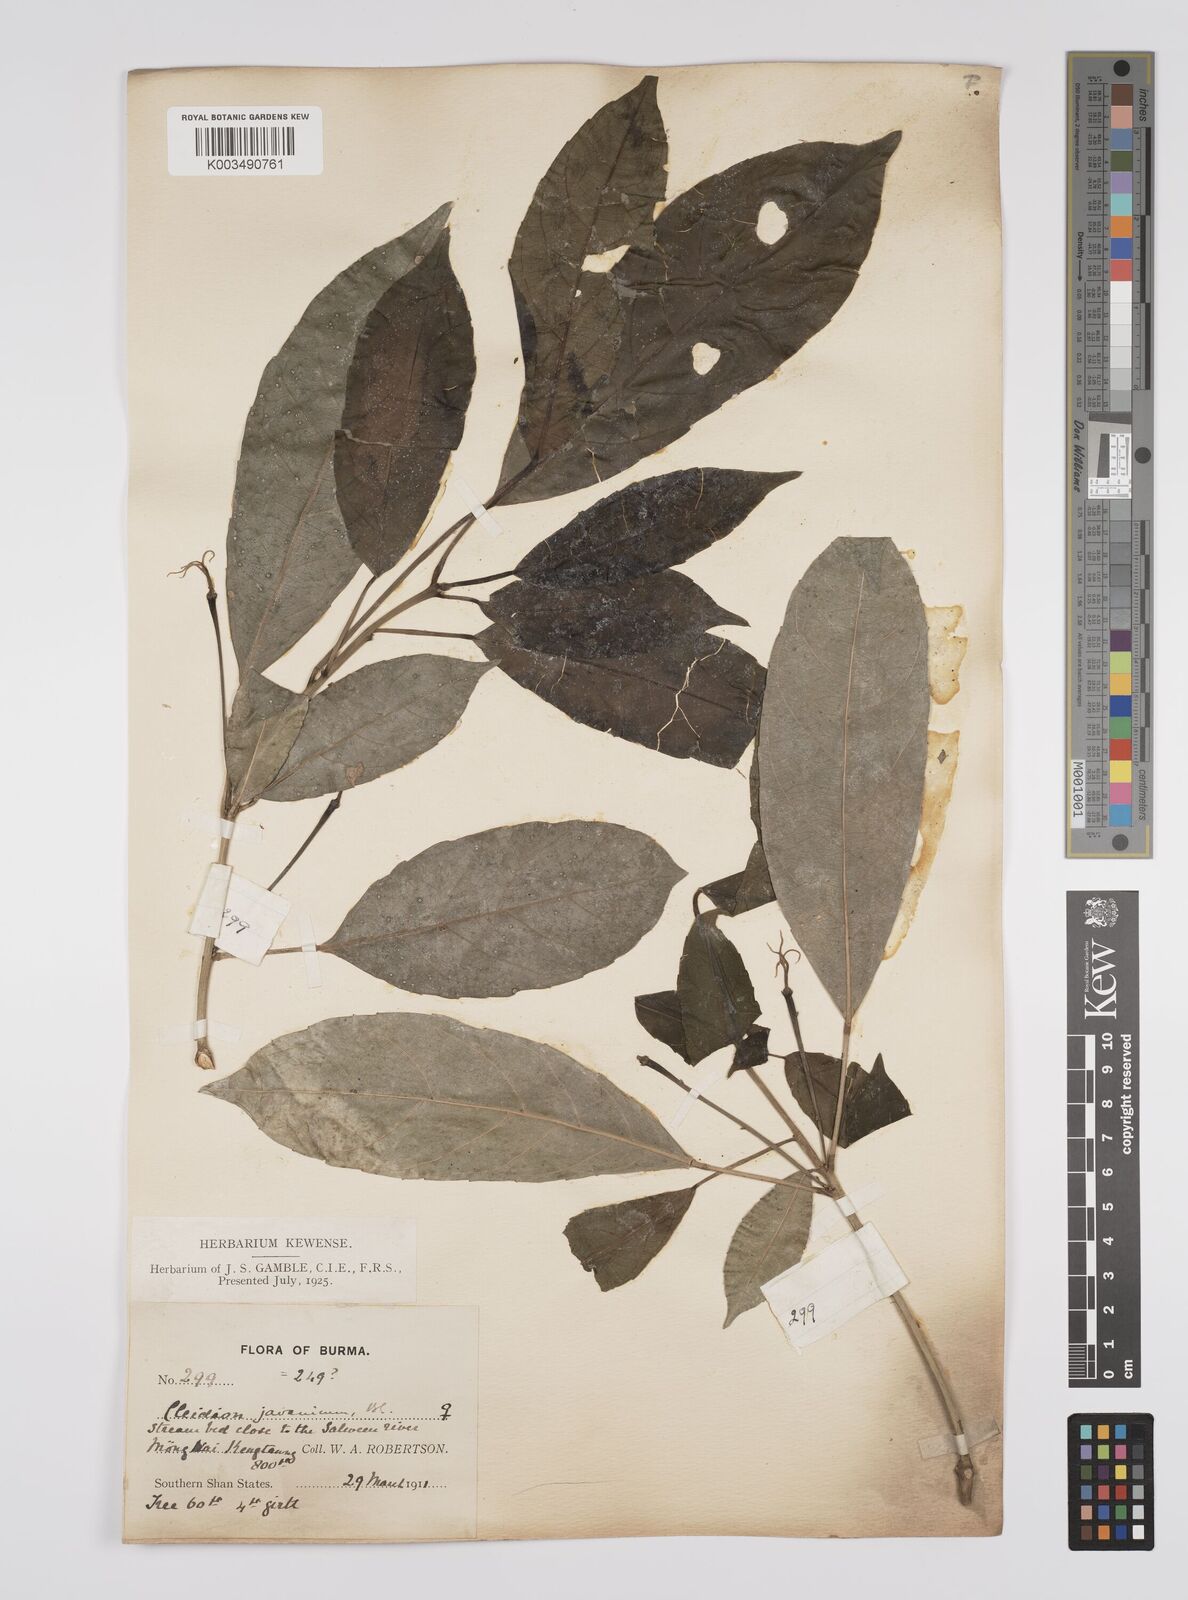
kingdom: Plantae
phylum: Tracheophyta
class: Magnoliopsida
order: Malpighiales
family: Euphorbiaceae
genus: Acalypha
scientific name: Acalypha spiciflora
